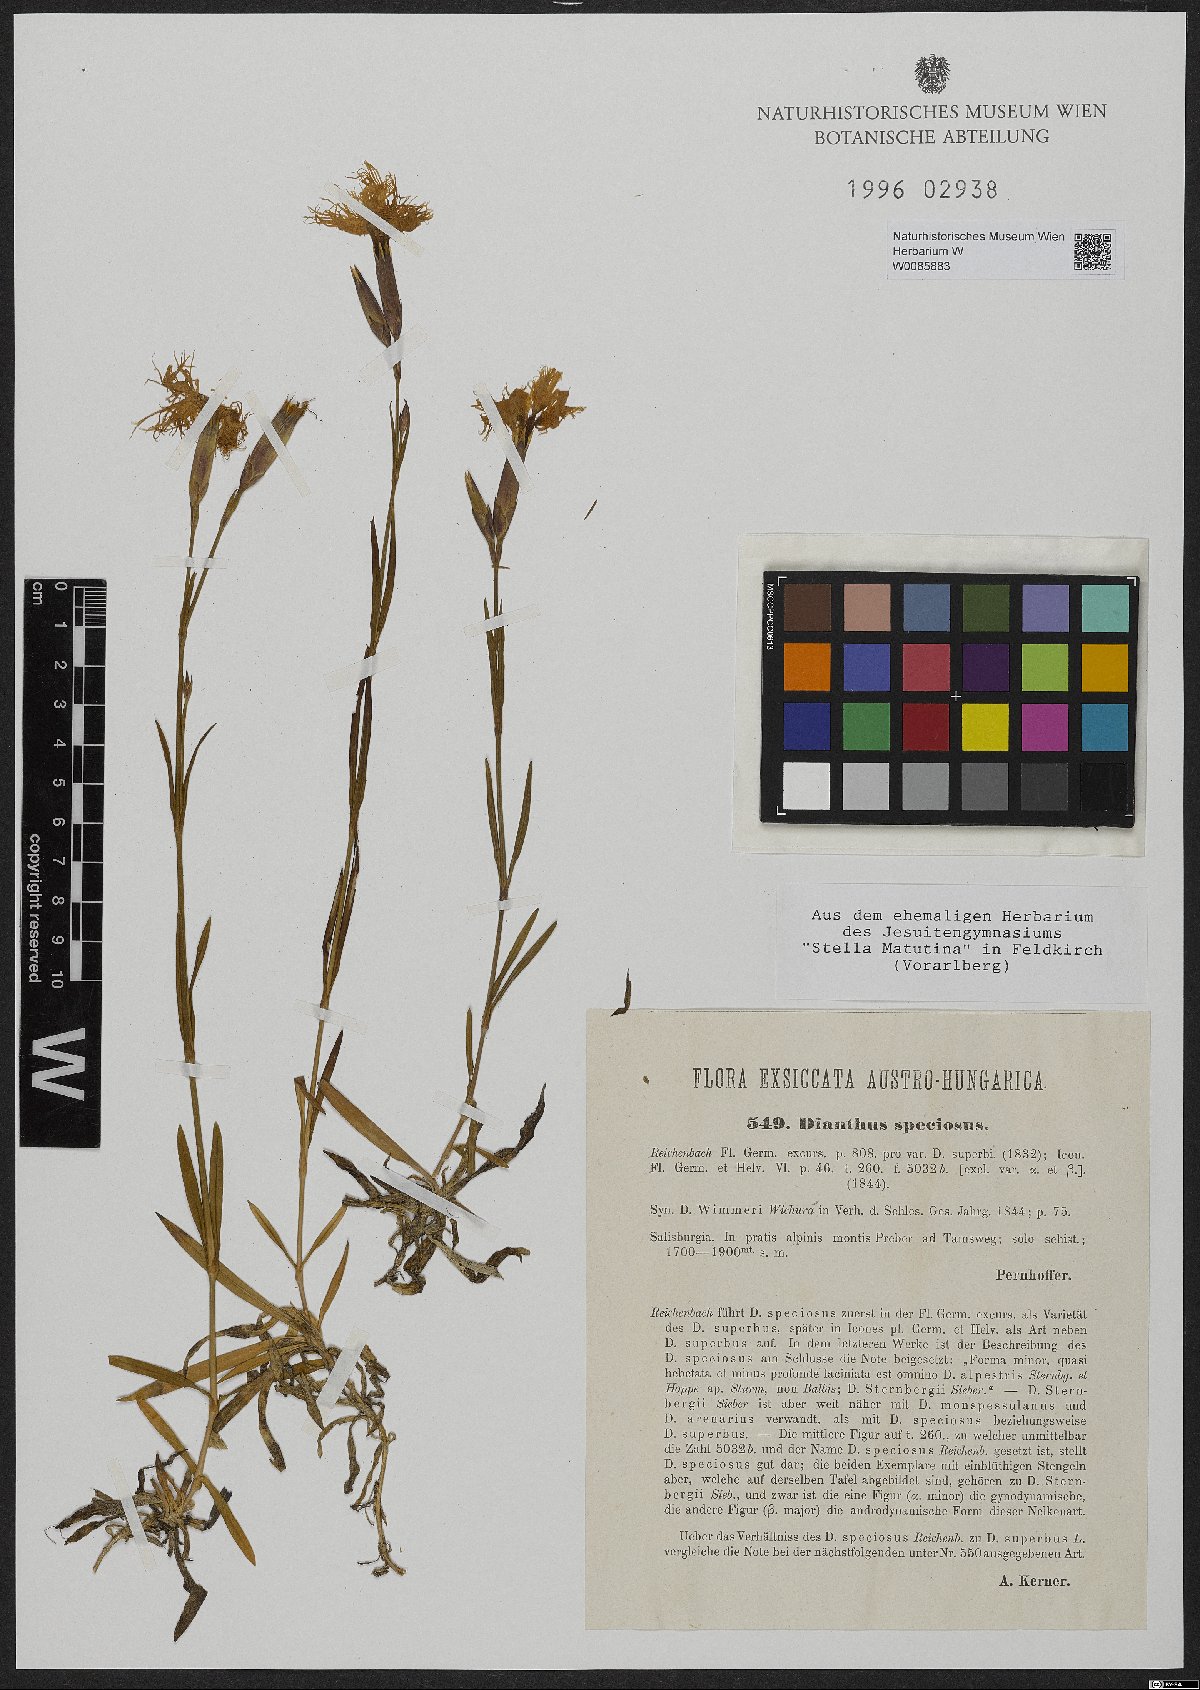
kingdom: Plantae
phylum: Tracheophyta
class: Magnoliopsida
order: Caryophyllales
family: Caryophyllaceae
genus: Dianthus
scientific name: Dianthus superbus
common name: Fringed pink
